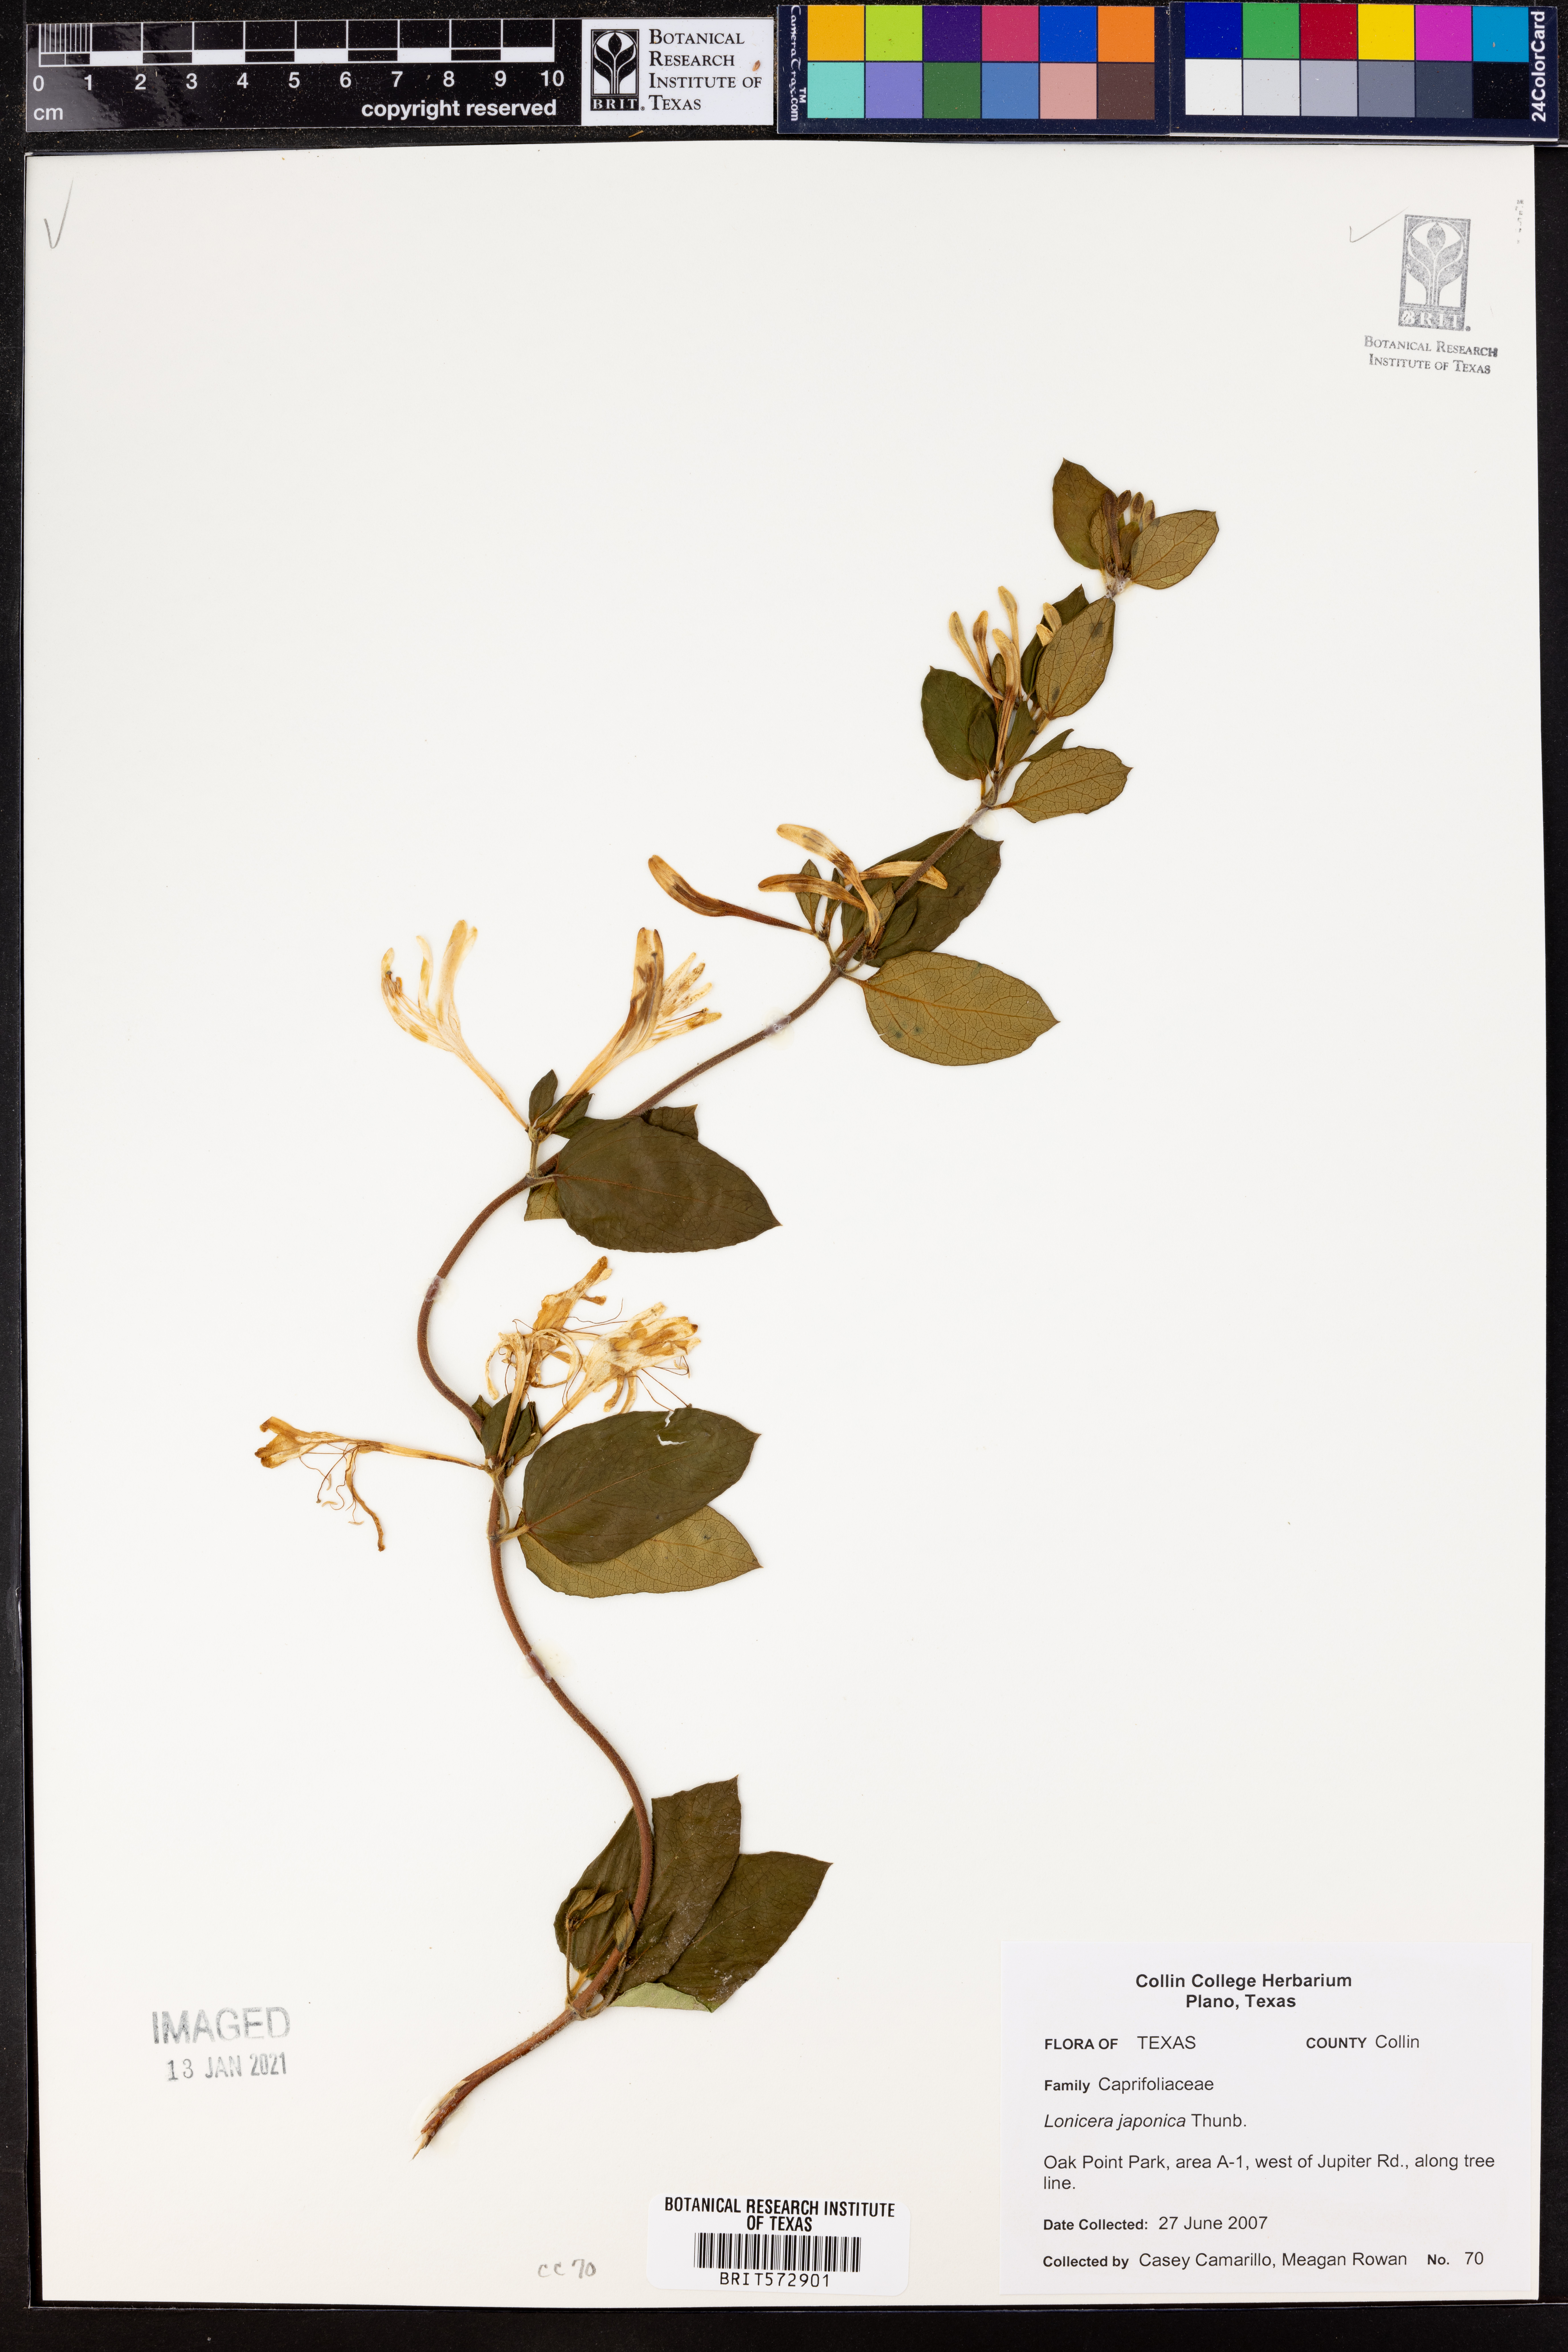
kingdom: Plantae
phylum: Tracheophyta
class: Magnoliopsida
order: Dipsacales
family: Caprifoliaceae
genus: Lonicera
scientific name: Lonicera japonica
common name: Japanese honeysuckle
